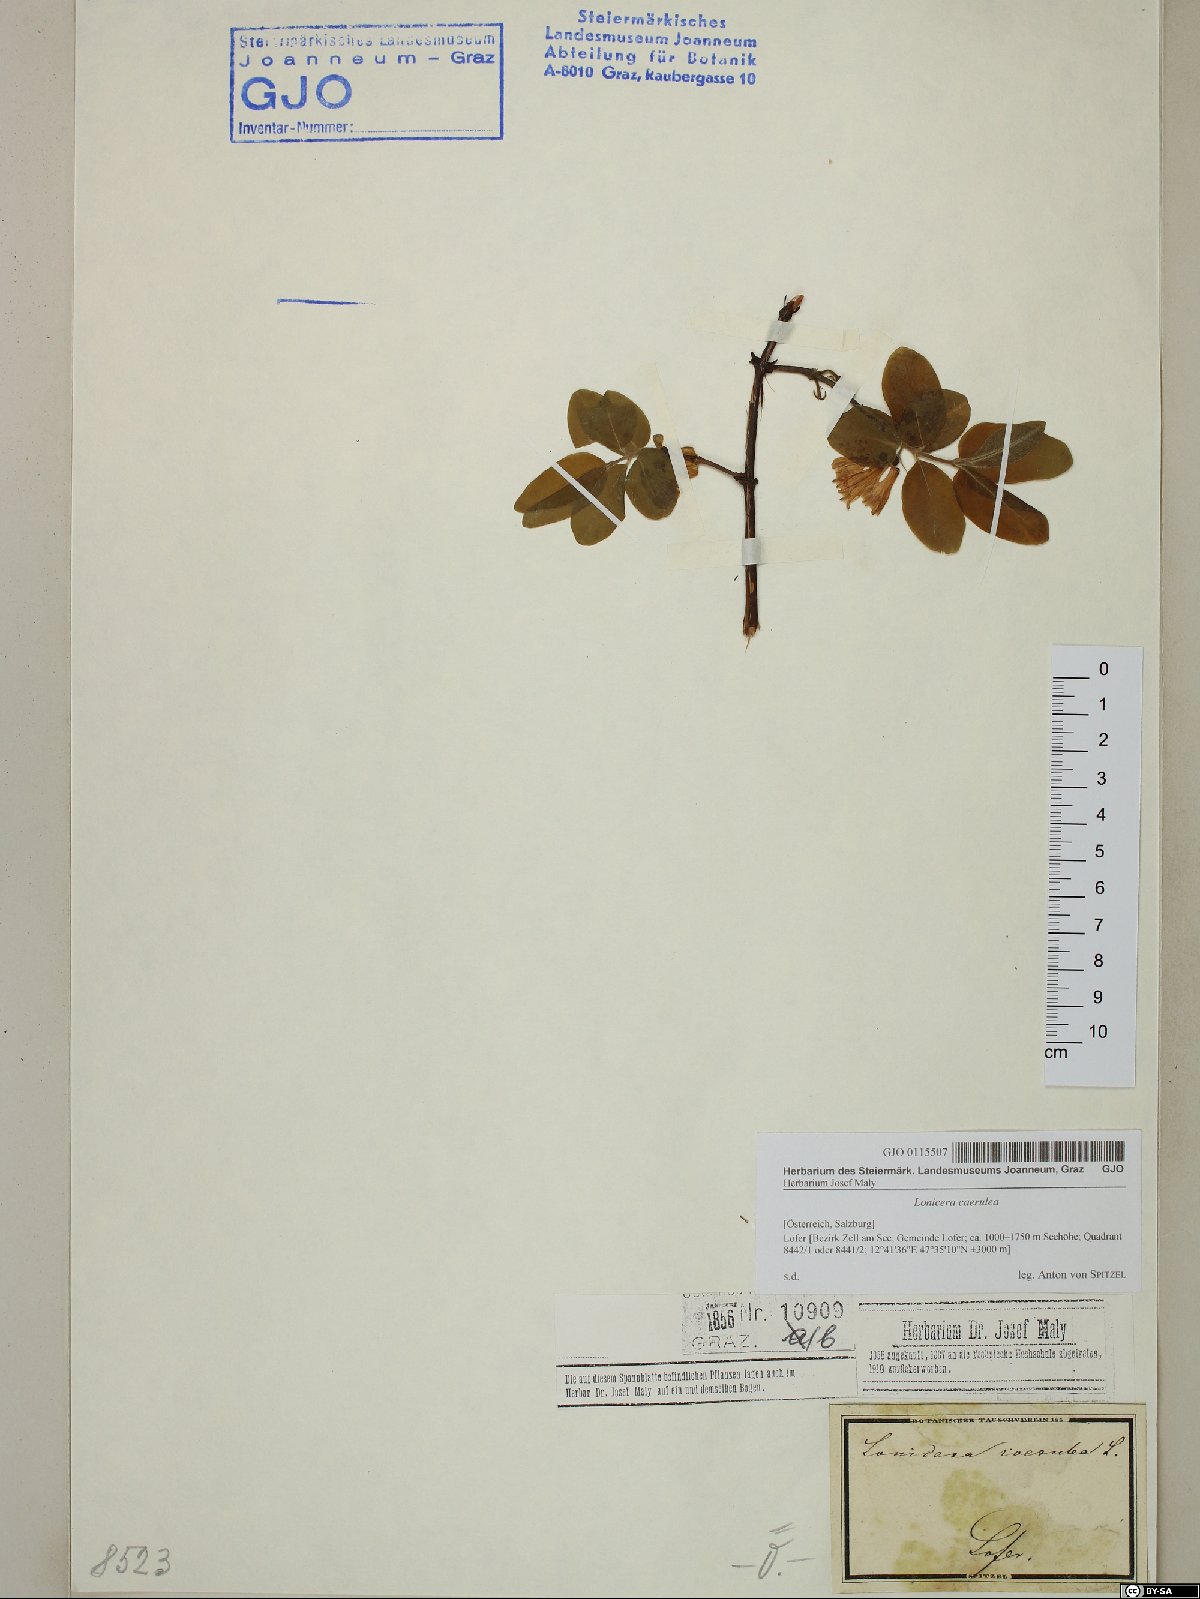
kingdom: Plantae
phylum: Tracheophyta
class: Magnoliopsida
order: Dipsacales
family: Caprifoliaceae
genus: Lonicera
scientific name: Lonicera caerulea
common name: Blue honeysuckle
